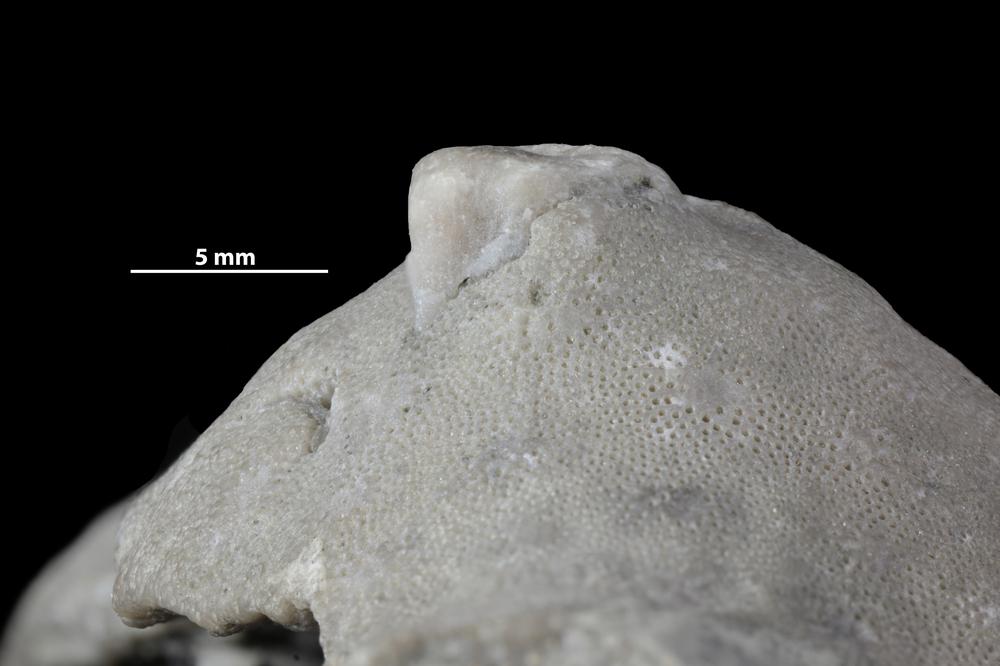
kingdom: Animalia
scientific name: Animalia
